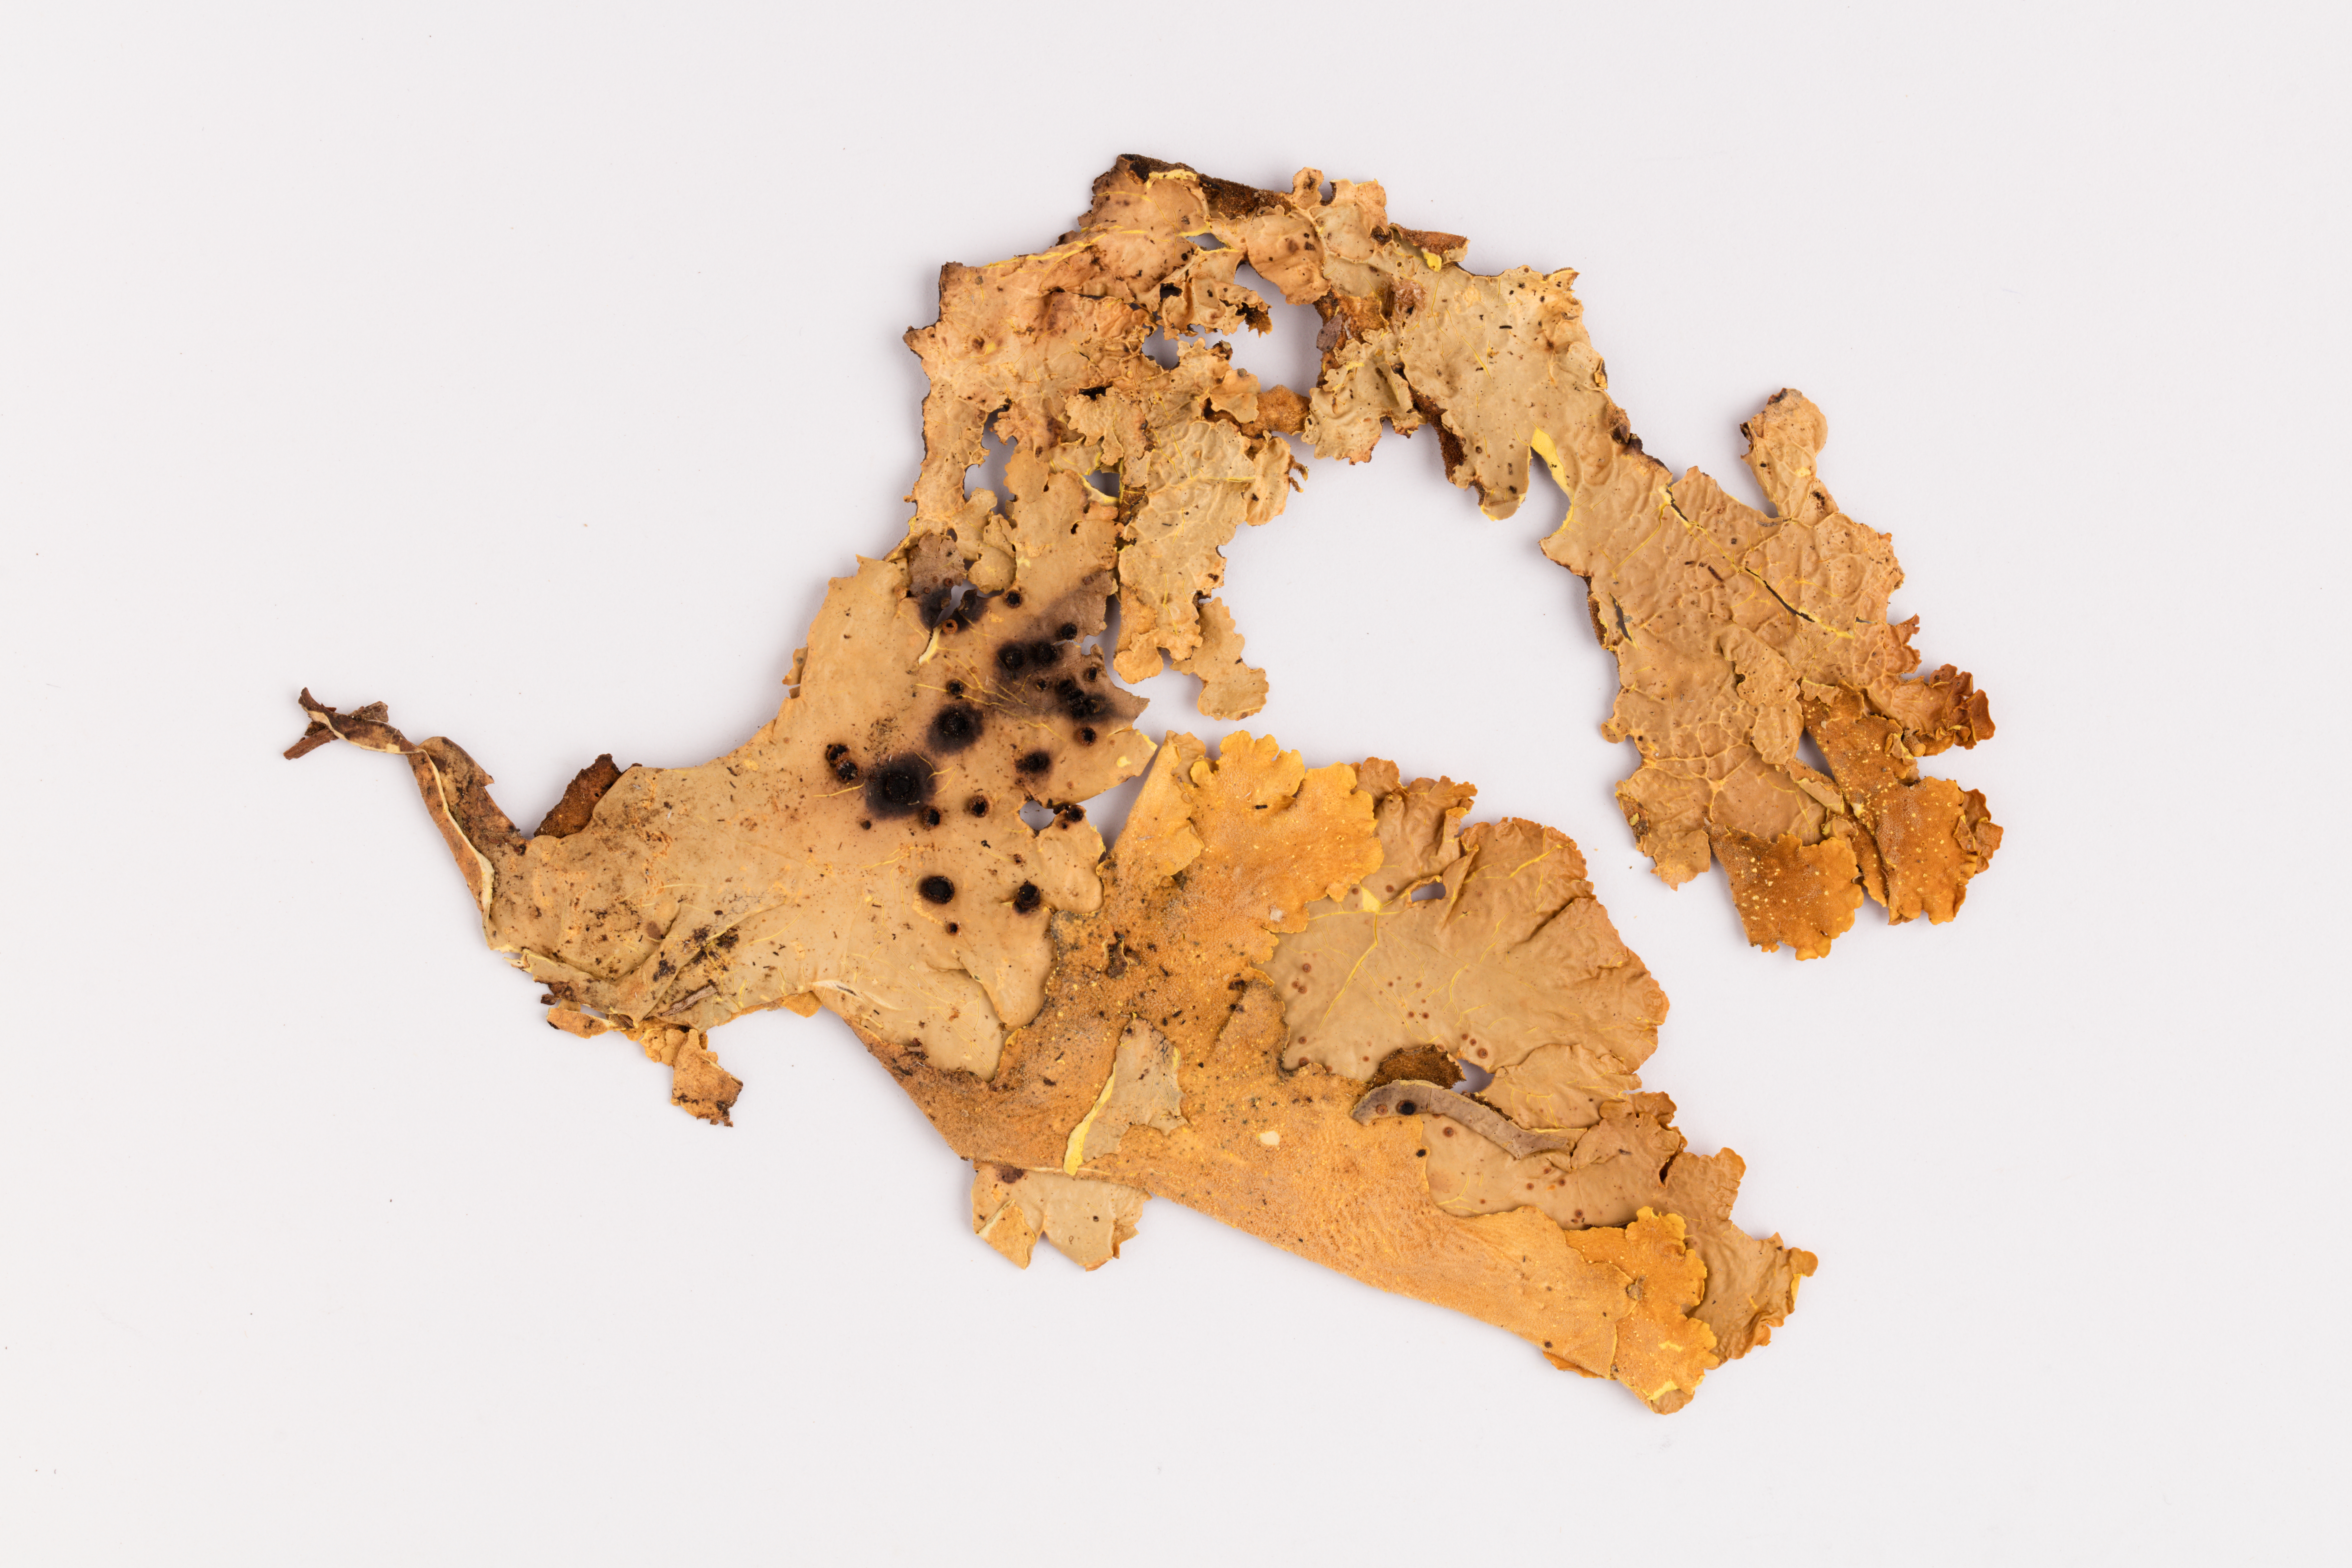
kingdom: Fungi
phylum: Ascomycota
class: Lecanoromycetes
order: Peltigerales
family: Lobariaceae
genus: Podostictina
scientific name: Podostictina berberina
